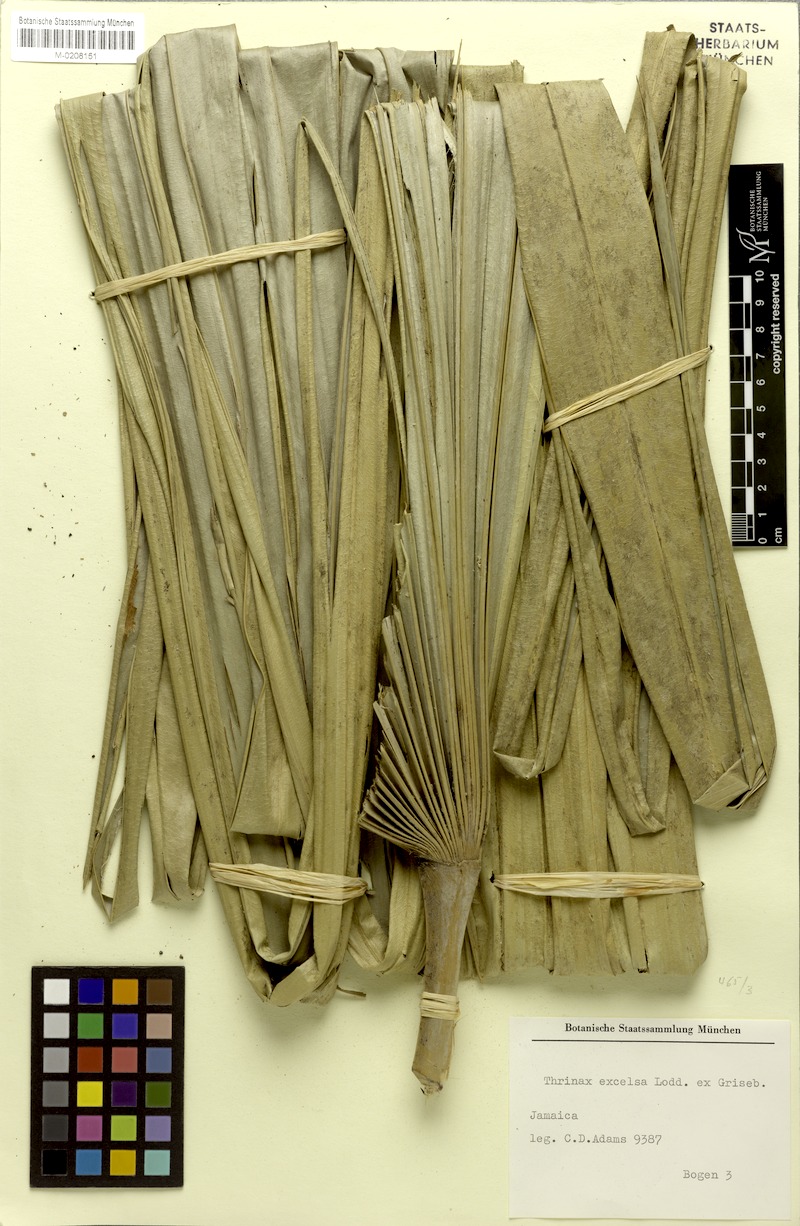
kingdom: Plantae
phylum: Tracheophyta
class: Liliopsida
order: Arecales
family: Arecaceae
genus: Thrinax
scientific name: Thrinax excelsa
